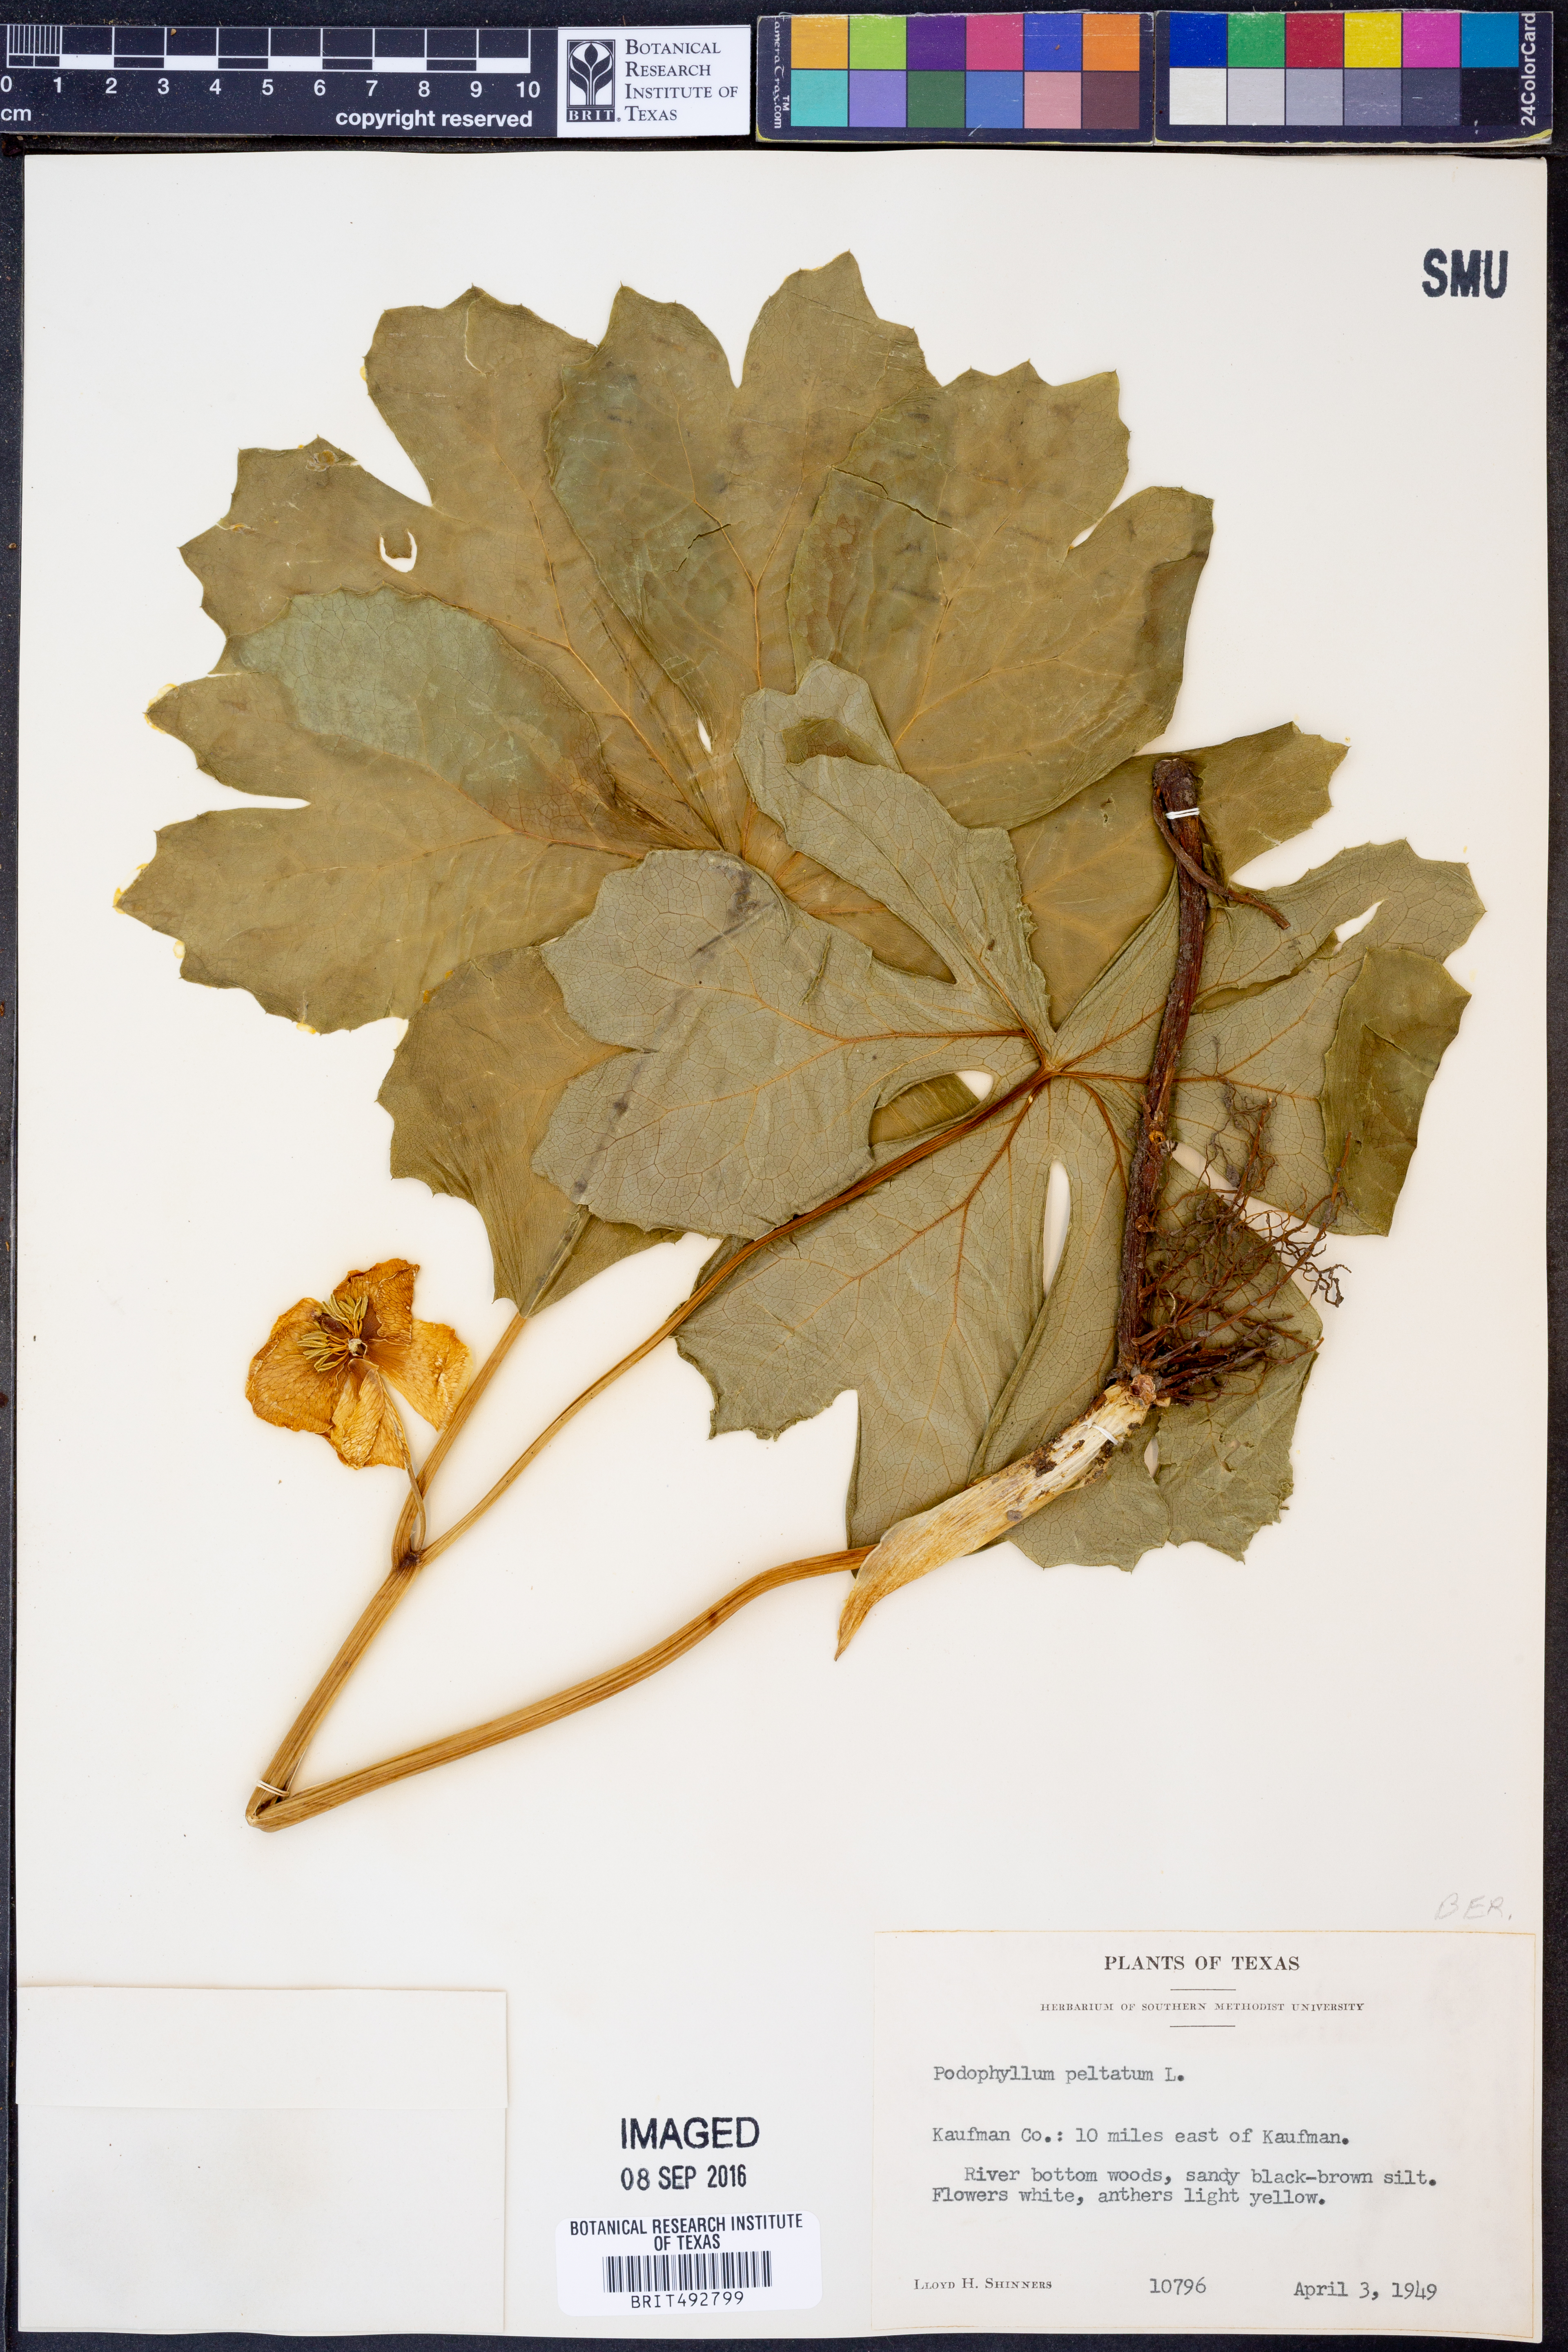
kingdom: Plantae
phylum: Tracheophyta
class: Magnoliopsida
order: Ranunculales
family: Berberidaceae
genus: Podophyllum
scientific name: Podophyllum peltatum
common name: Wild mandrake
